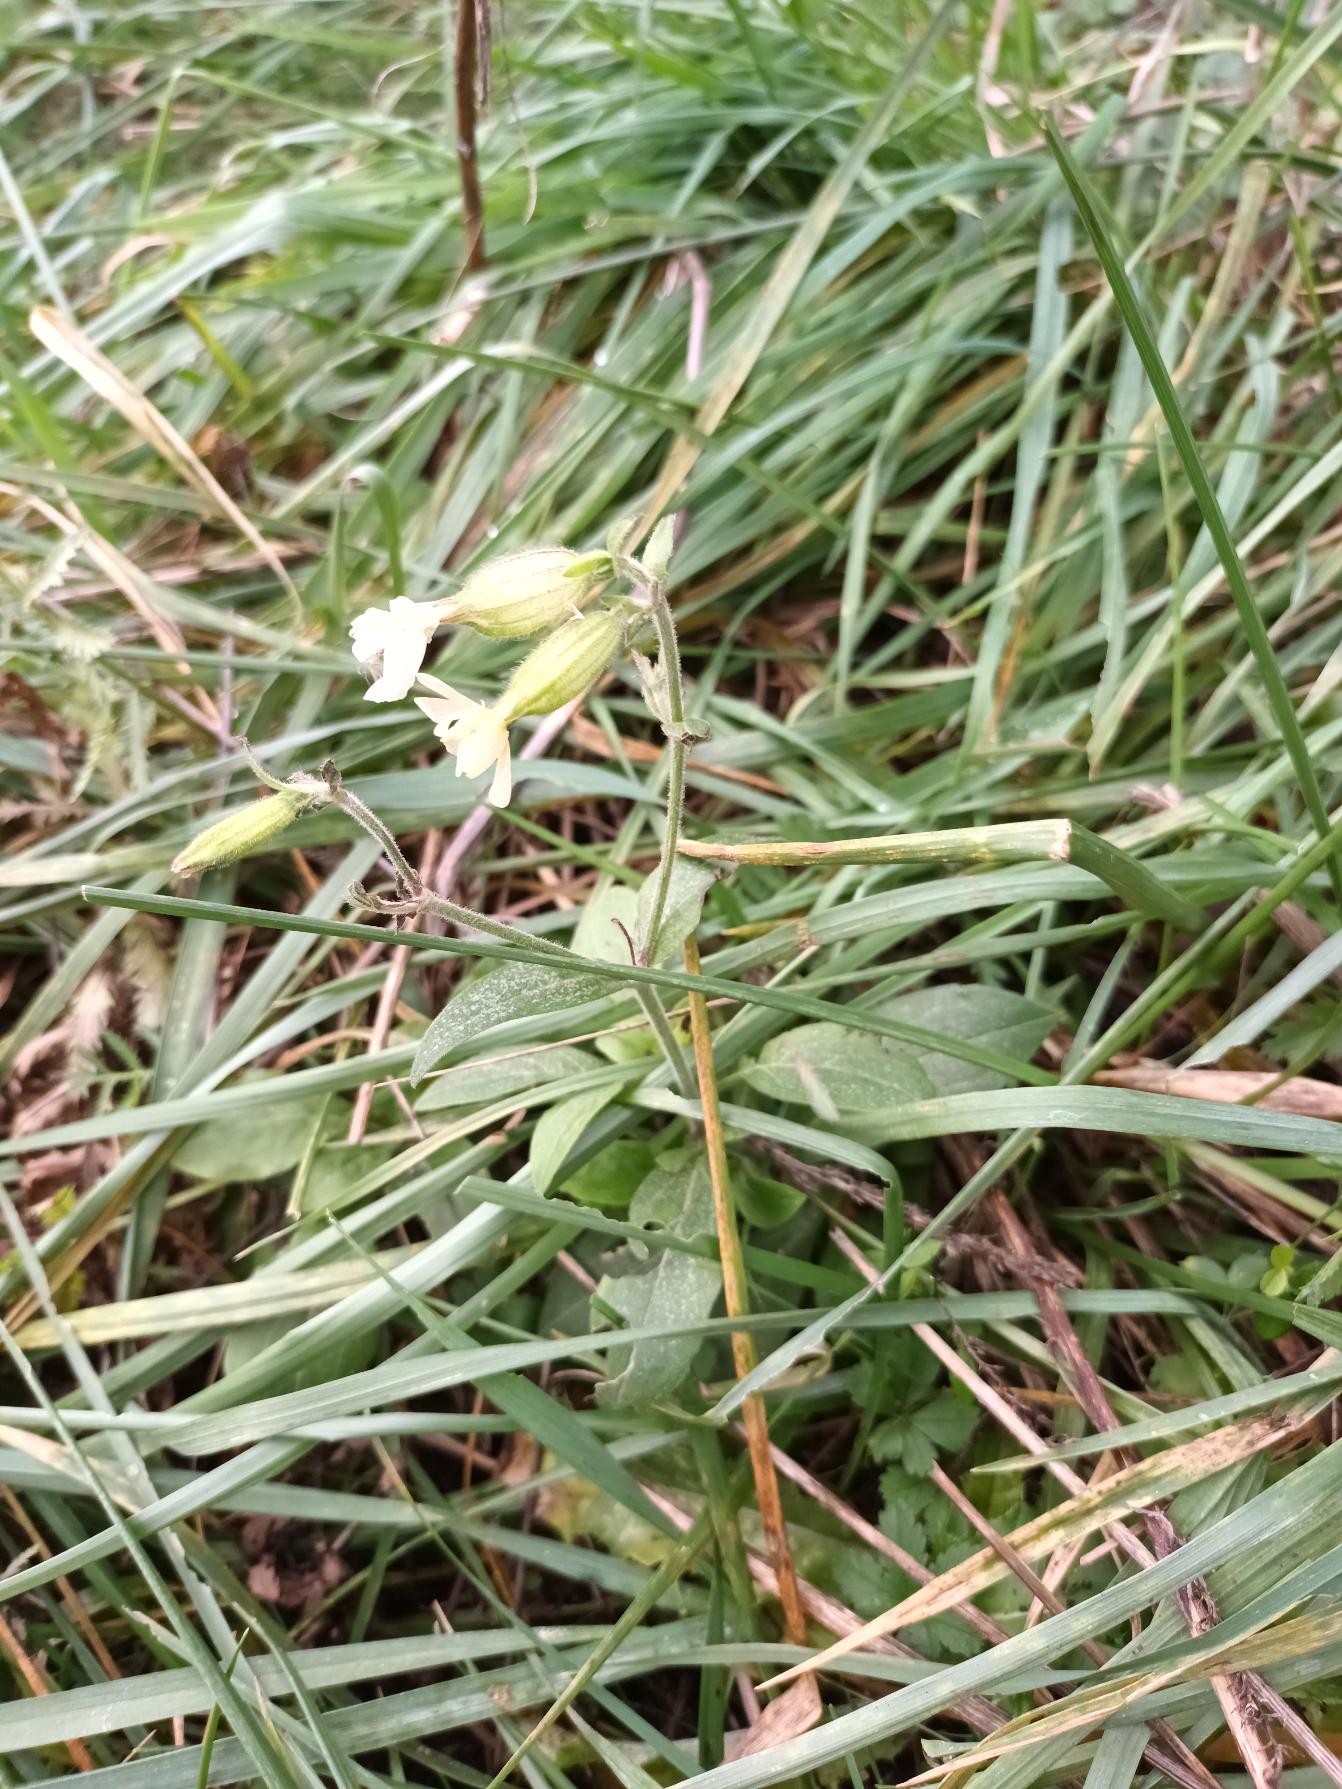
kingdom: Plantae
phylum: Tracheophyta
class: Magnoliopsida
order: Caryophyllales
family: Caryophyllaceae
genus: Silene
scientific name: Silene latifolia
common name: Aftenpragtstjerne
